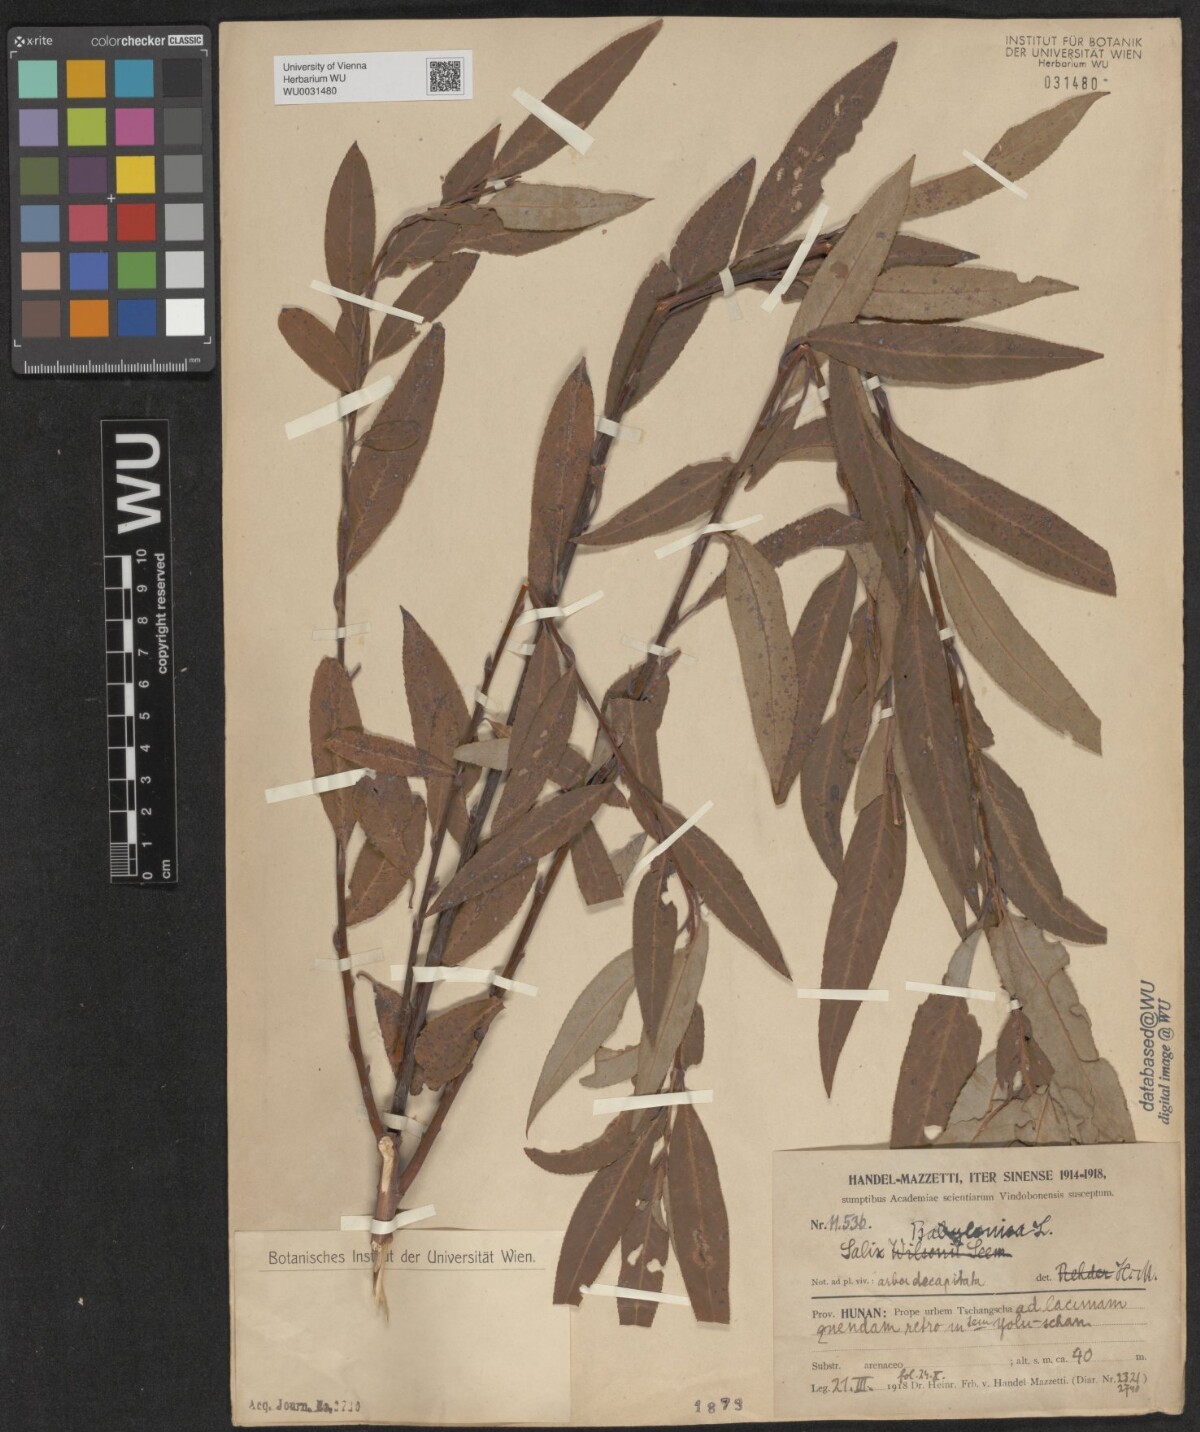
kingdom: Plantae
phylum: Tracheophyta
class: Magnoliopsida
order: Malpighiales
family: Salicaceae
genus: Salix
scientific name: Salix babylonica
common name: Weeping willow
